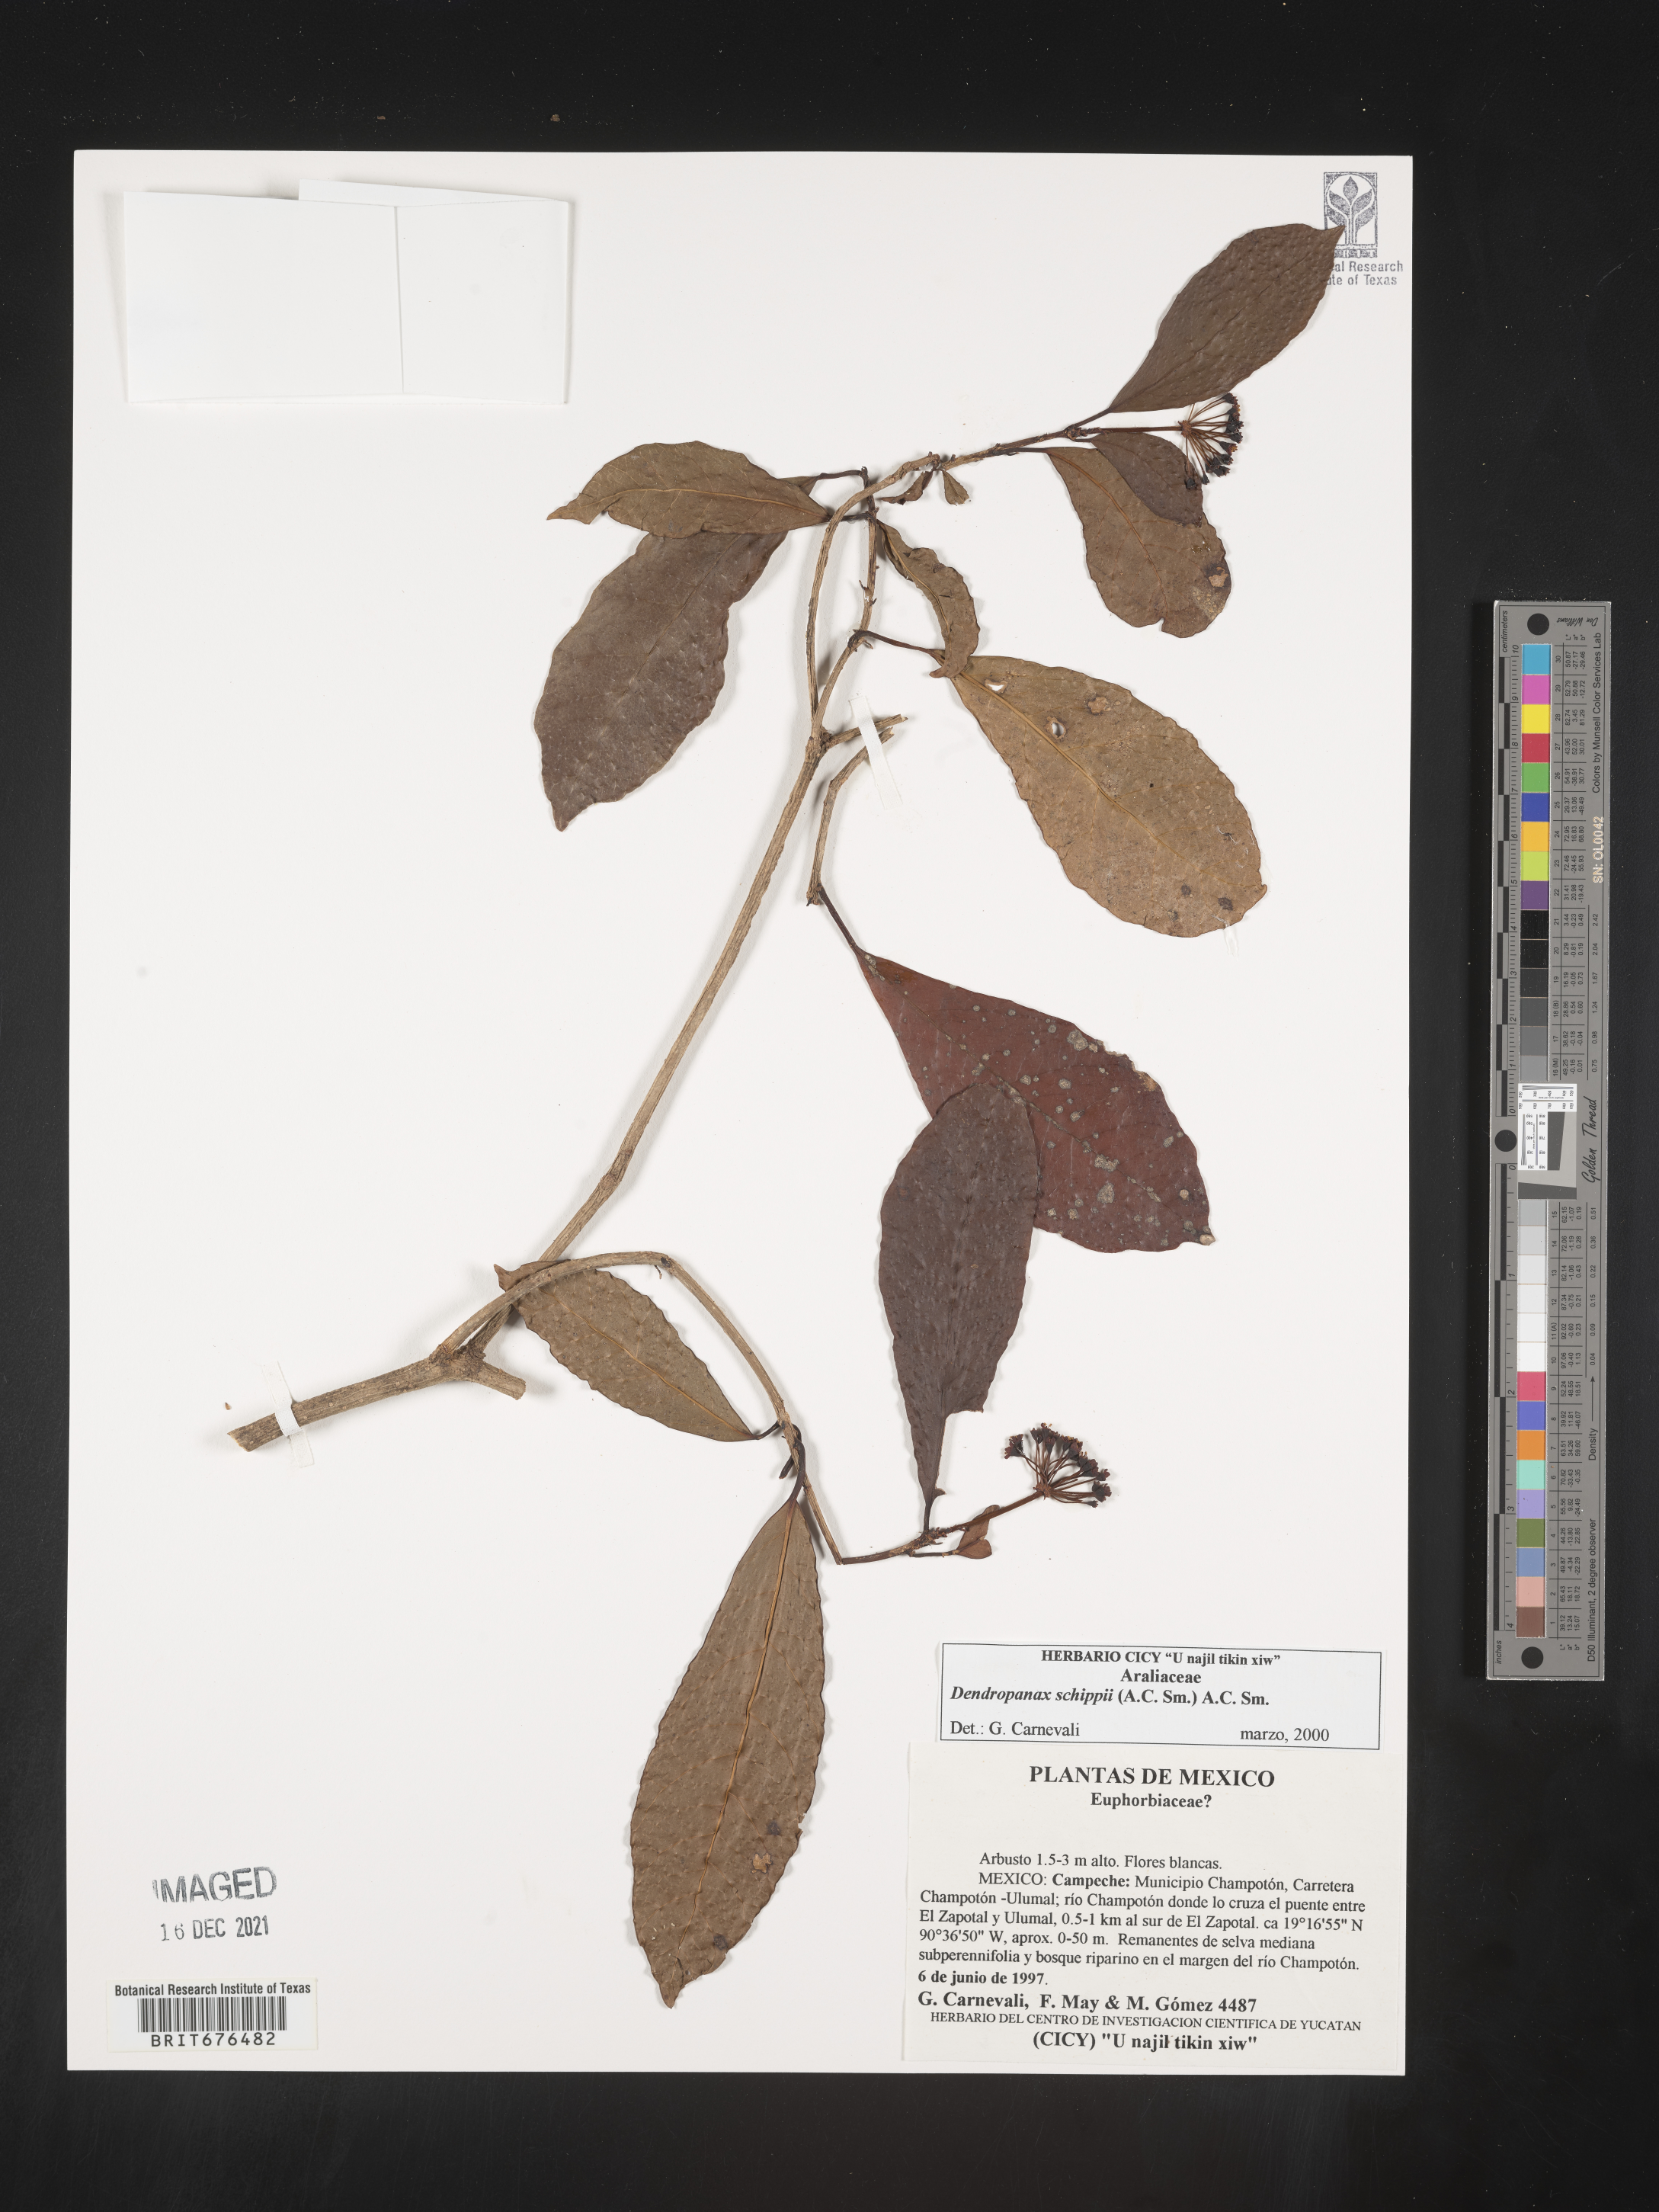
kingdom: Plantae
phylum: Tracheophyta
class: Magnoliopsida
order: Apiales
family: Araliaceae
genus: Dendropanax
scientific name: Dendropanax
